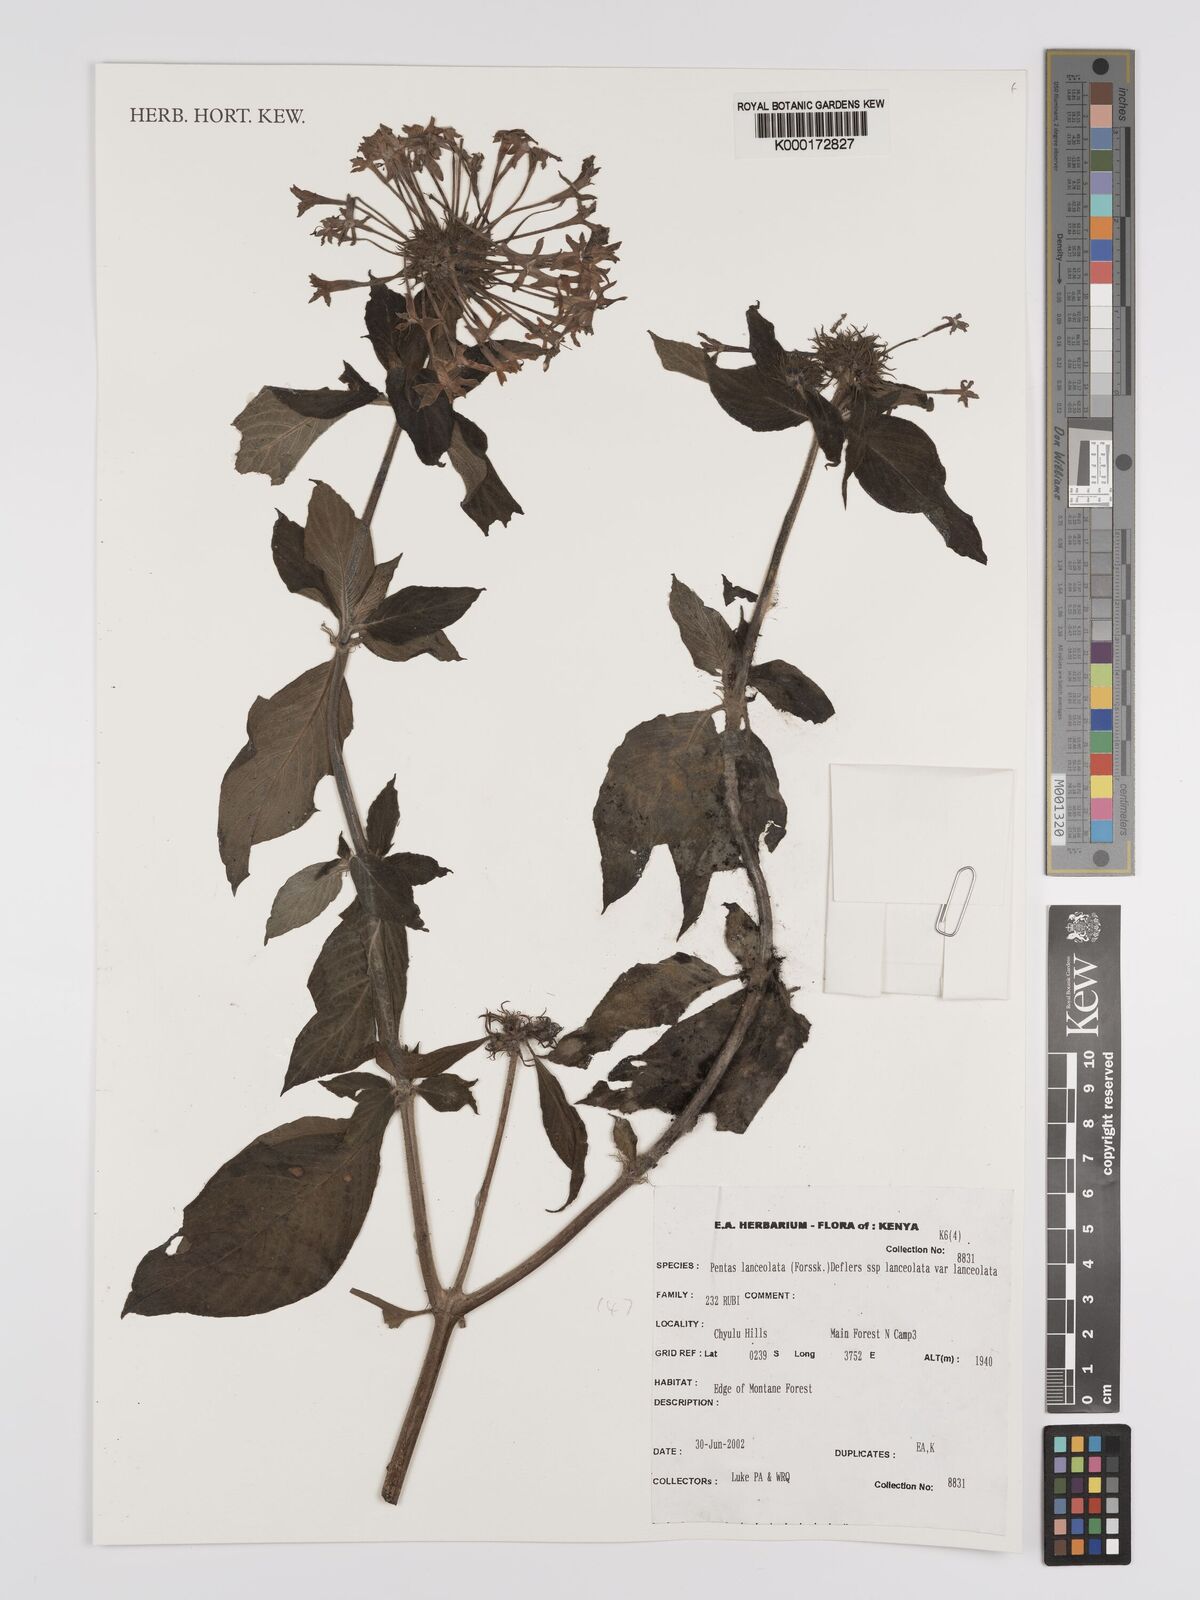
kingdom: Plantae
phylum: Tracheophyta
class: Magnoliopsida
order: Gentianales
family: Rubiaceae
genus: Pentas
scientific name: Pentas lanceolata
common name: Egyptian starcluster
